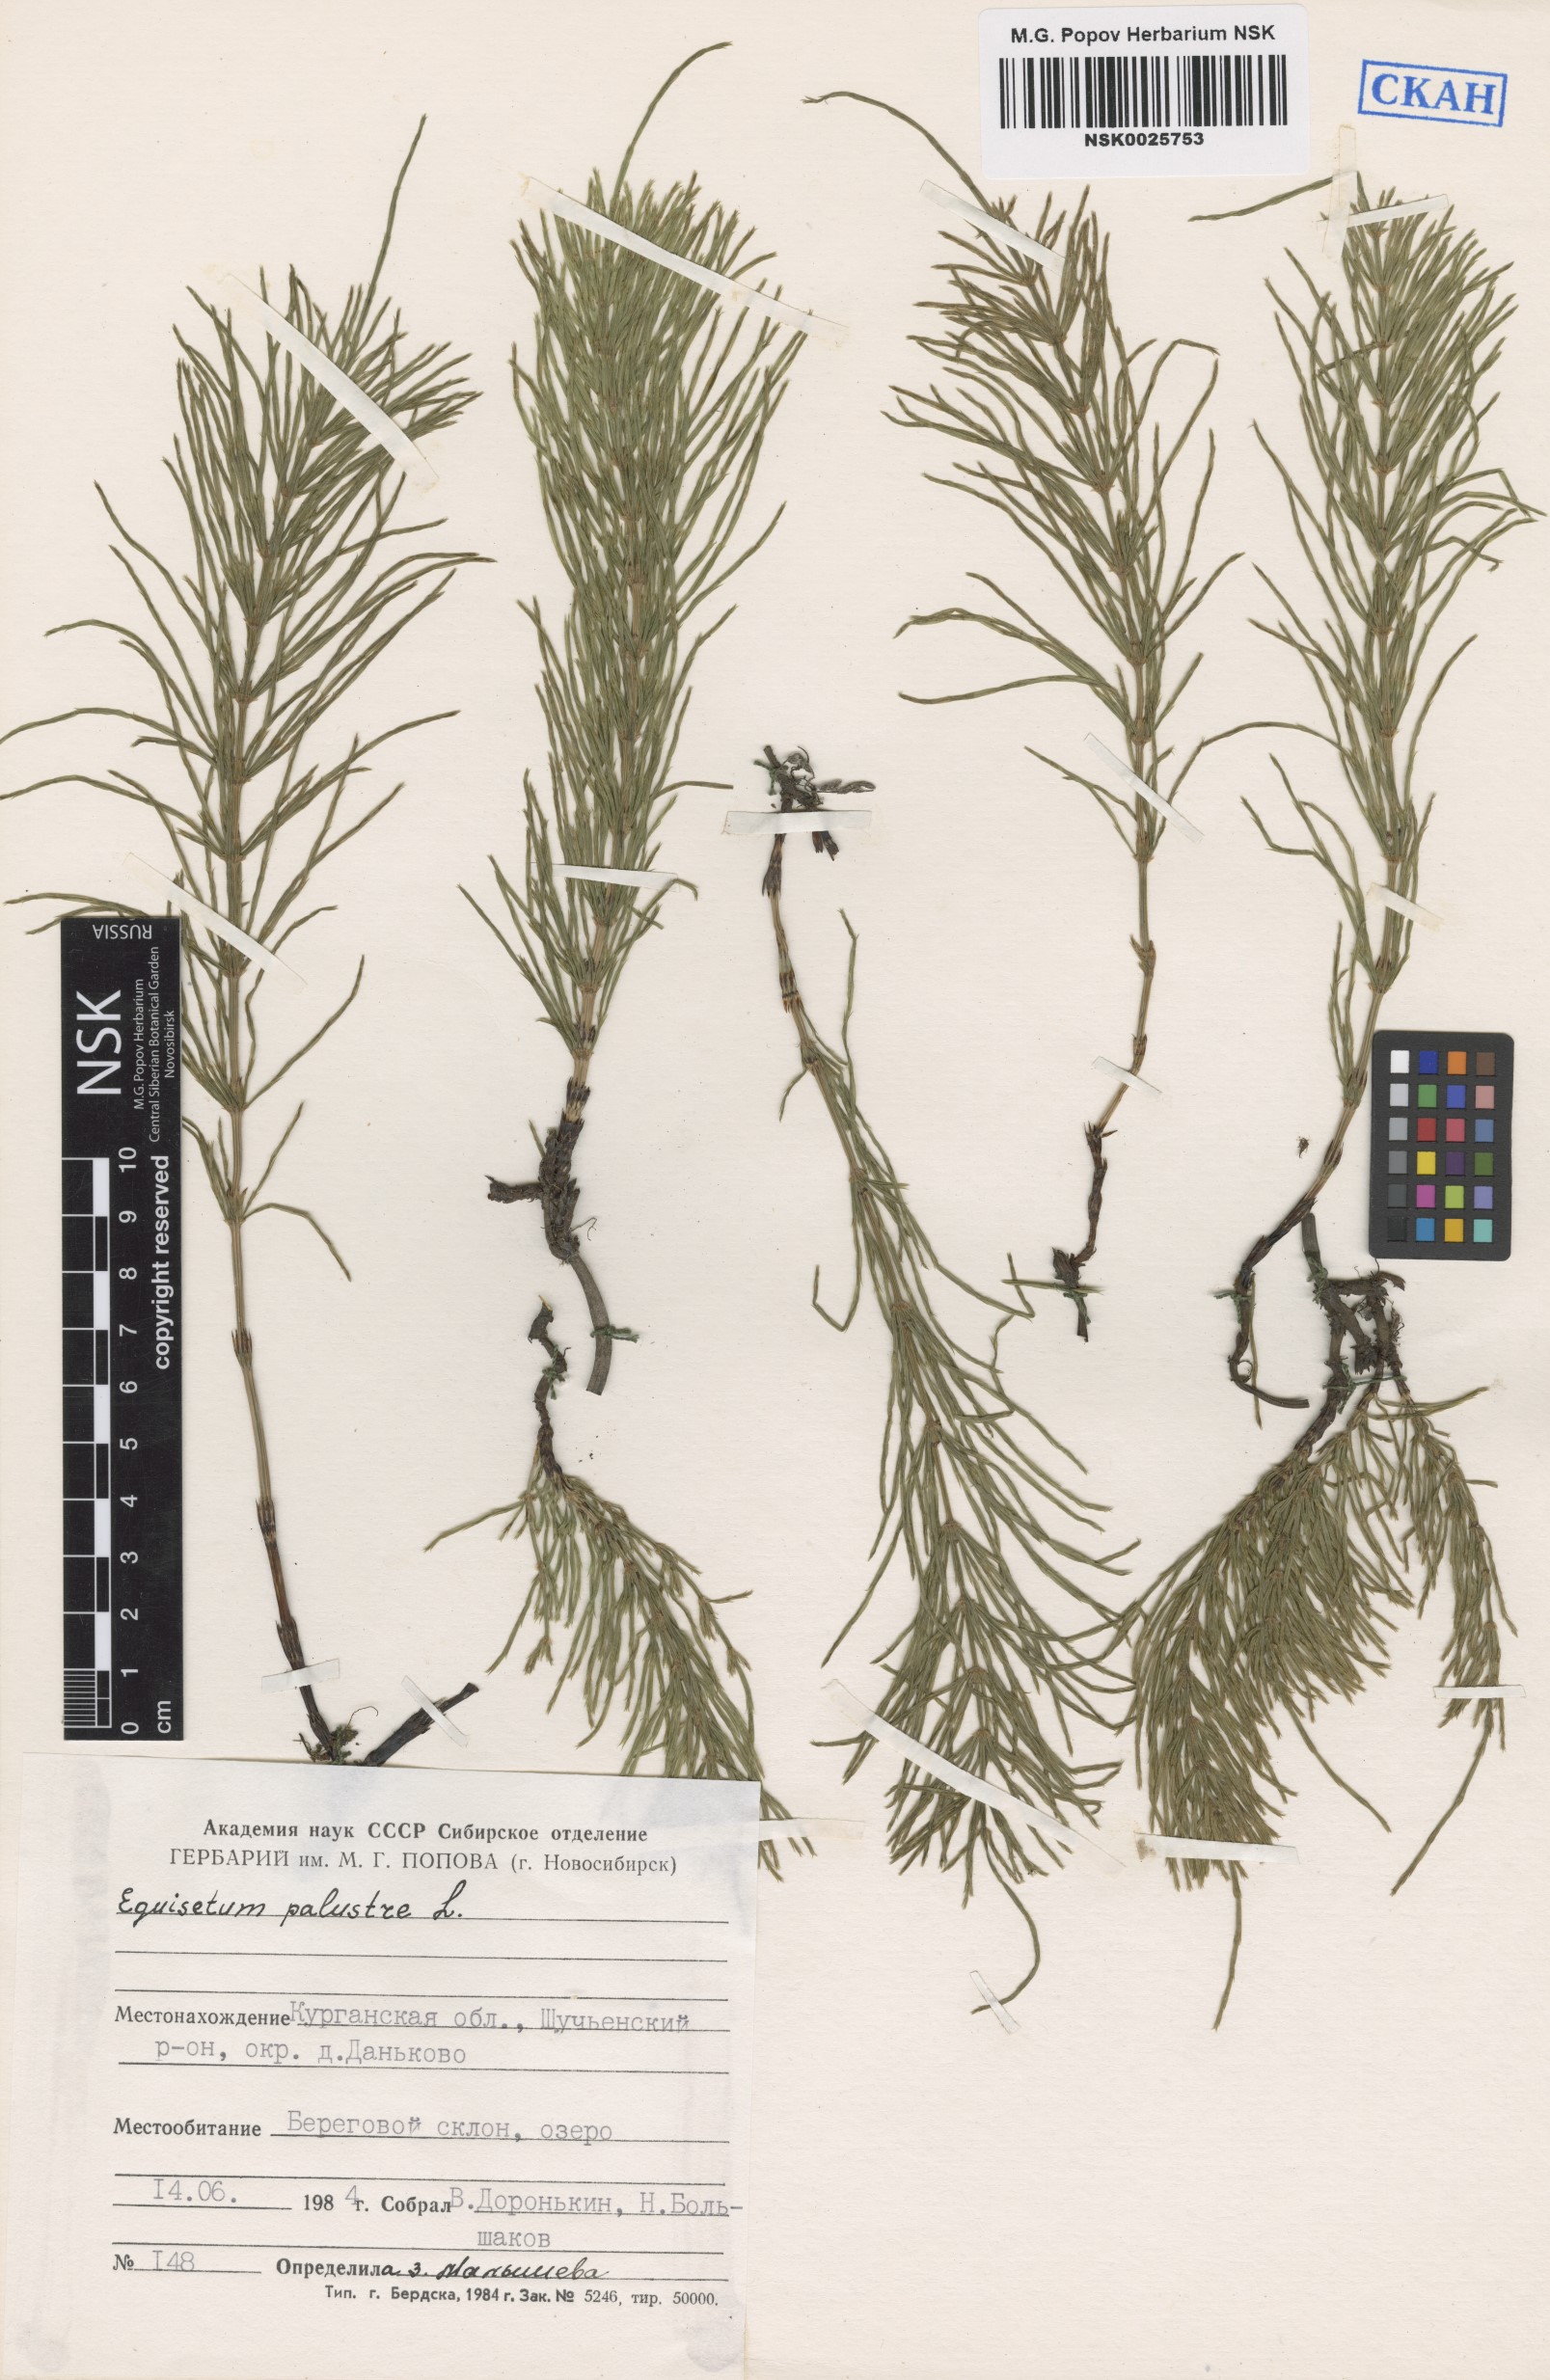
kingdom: Plantae
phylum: Tracheophyta
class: Polypodiopsida
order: Equisetales
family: Equisetaceae
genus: Equisetum
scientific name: Equisetum palustre
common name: Marsh horsetail
